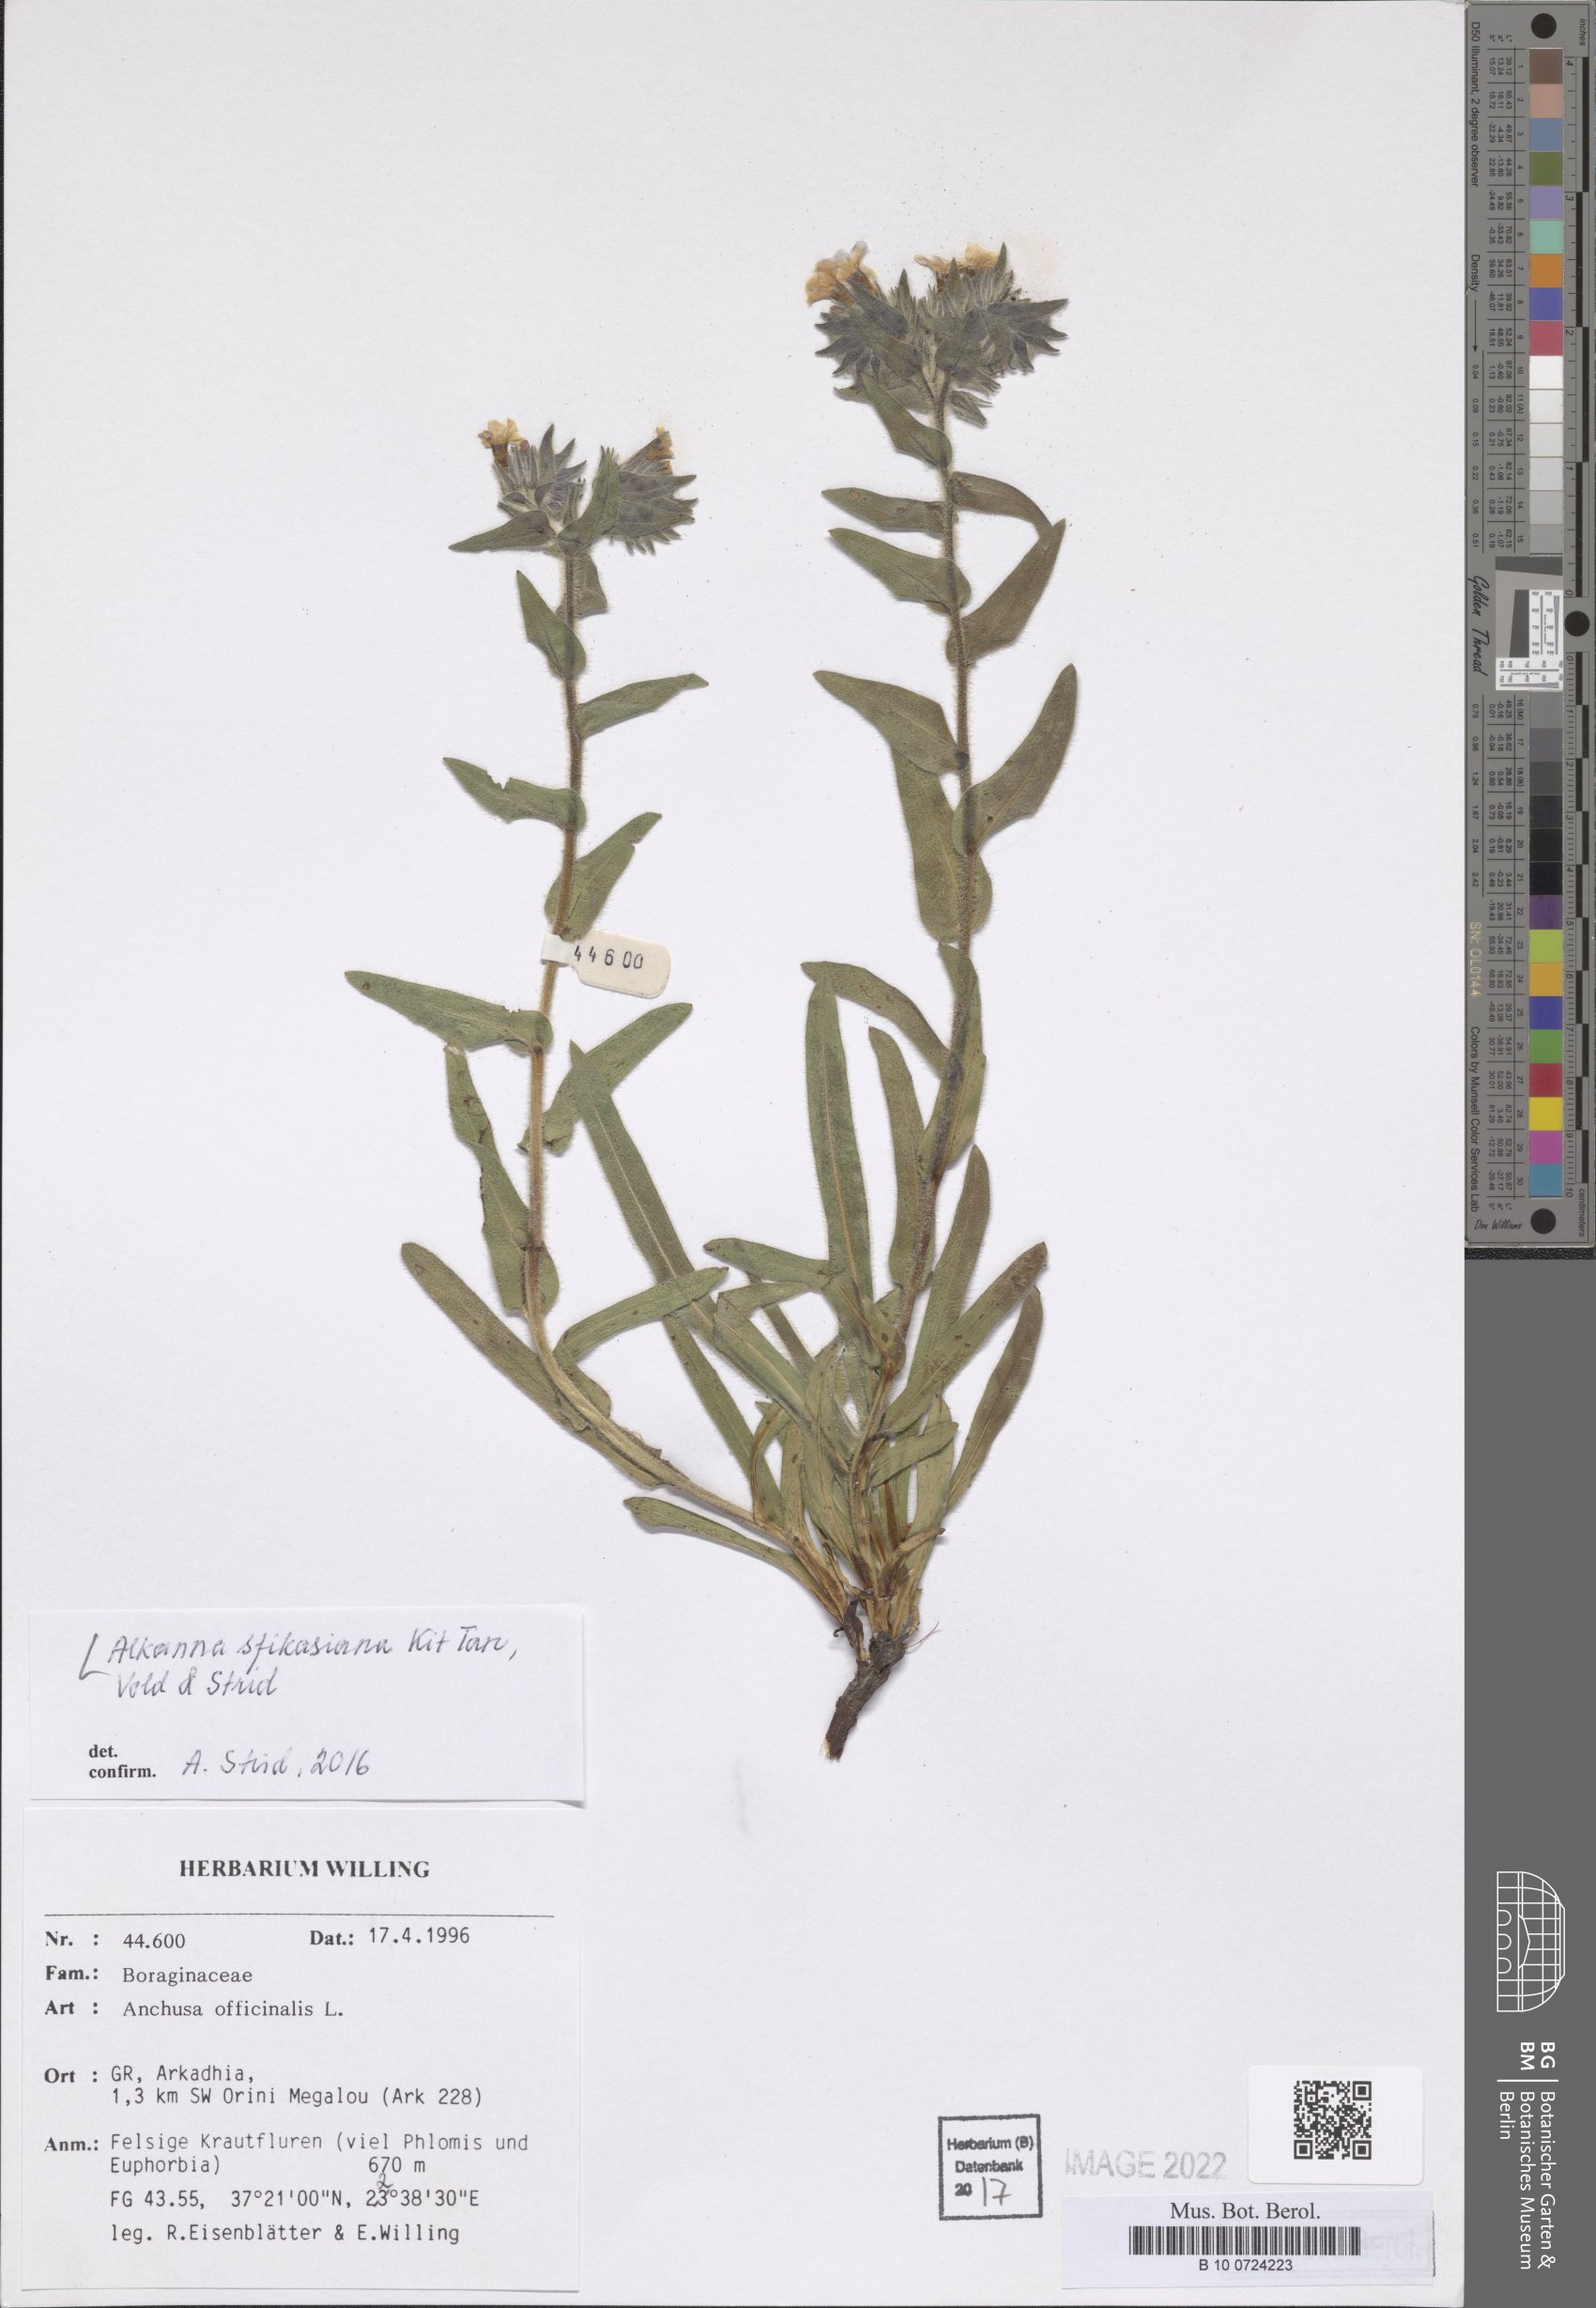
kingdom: Plantae
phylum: Tracheophyta
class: Magnoliopsida
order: Boraginales
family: Boraginaceae
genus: Alkanna
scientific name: Alkanna sfikasiana
